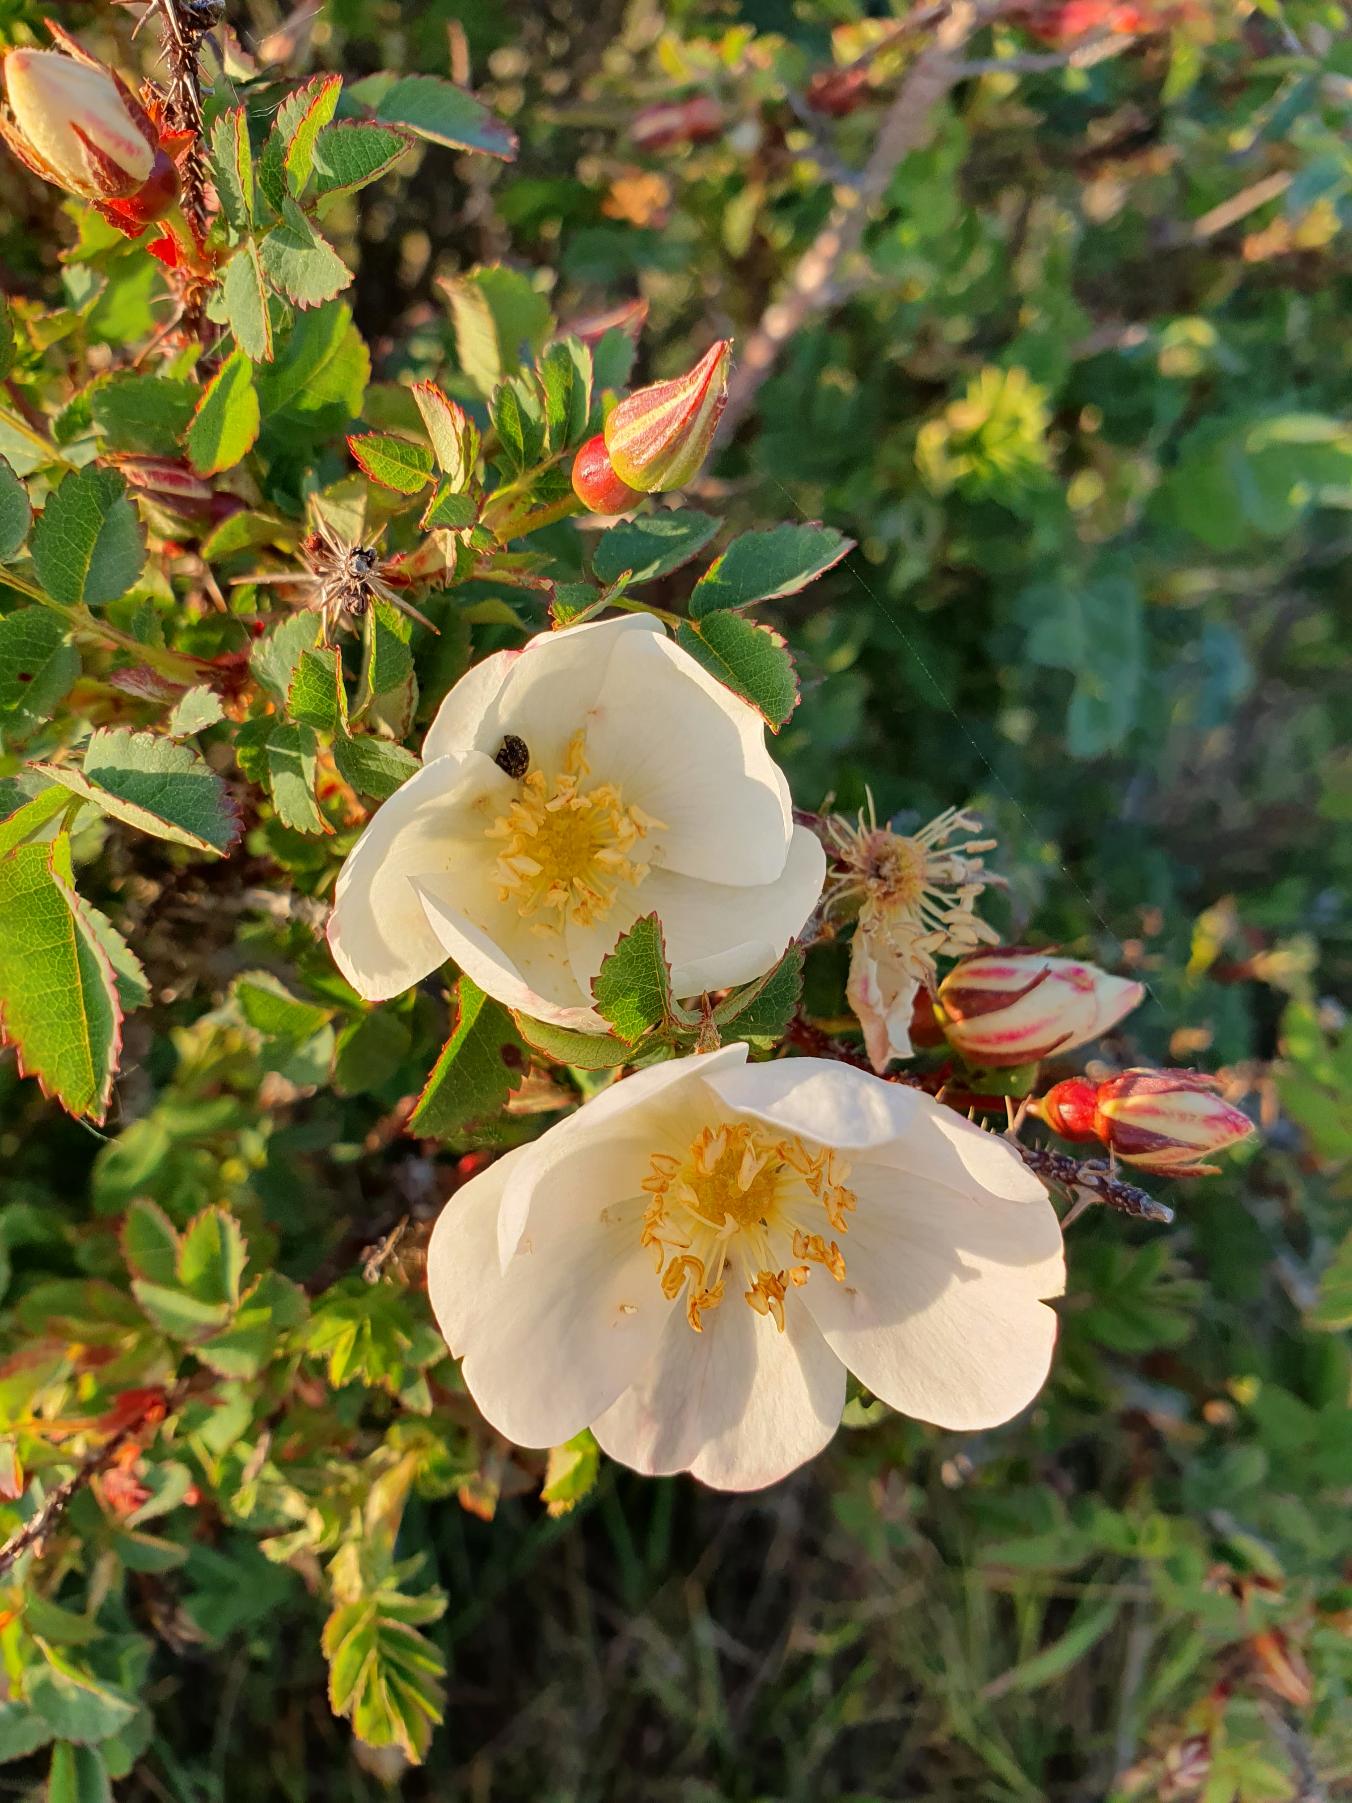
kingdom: Plantae
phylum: Tracheophyta
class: Magnoliopsida
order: Rosales
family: Rosaceae
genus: Rosa
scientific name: Rosa spinosissima
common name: Klit-rose
